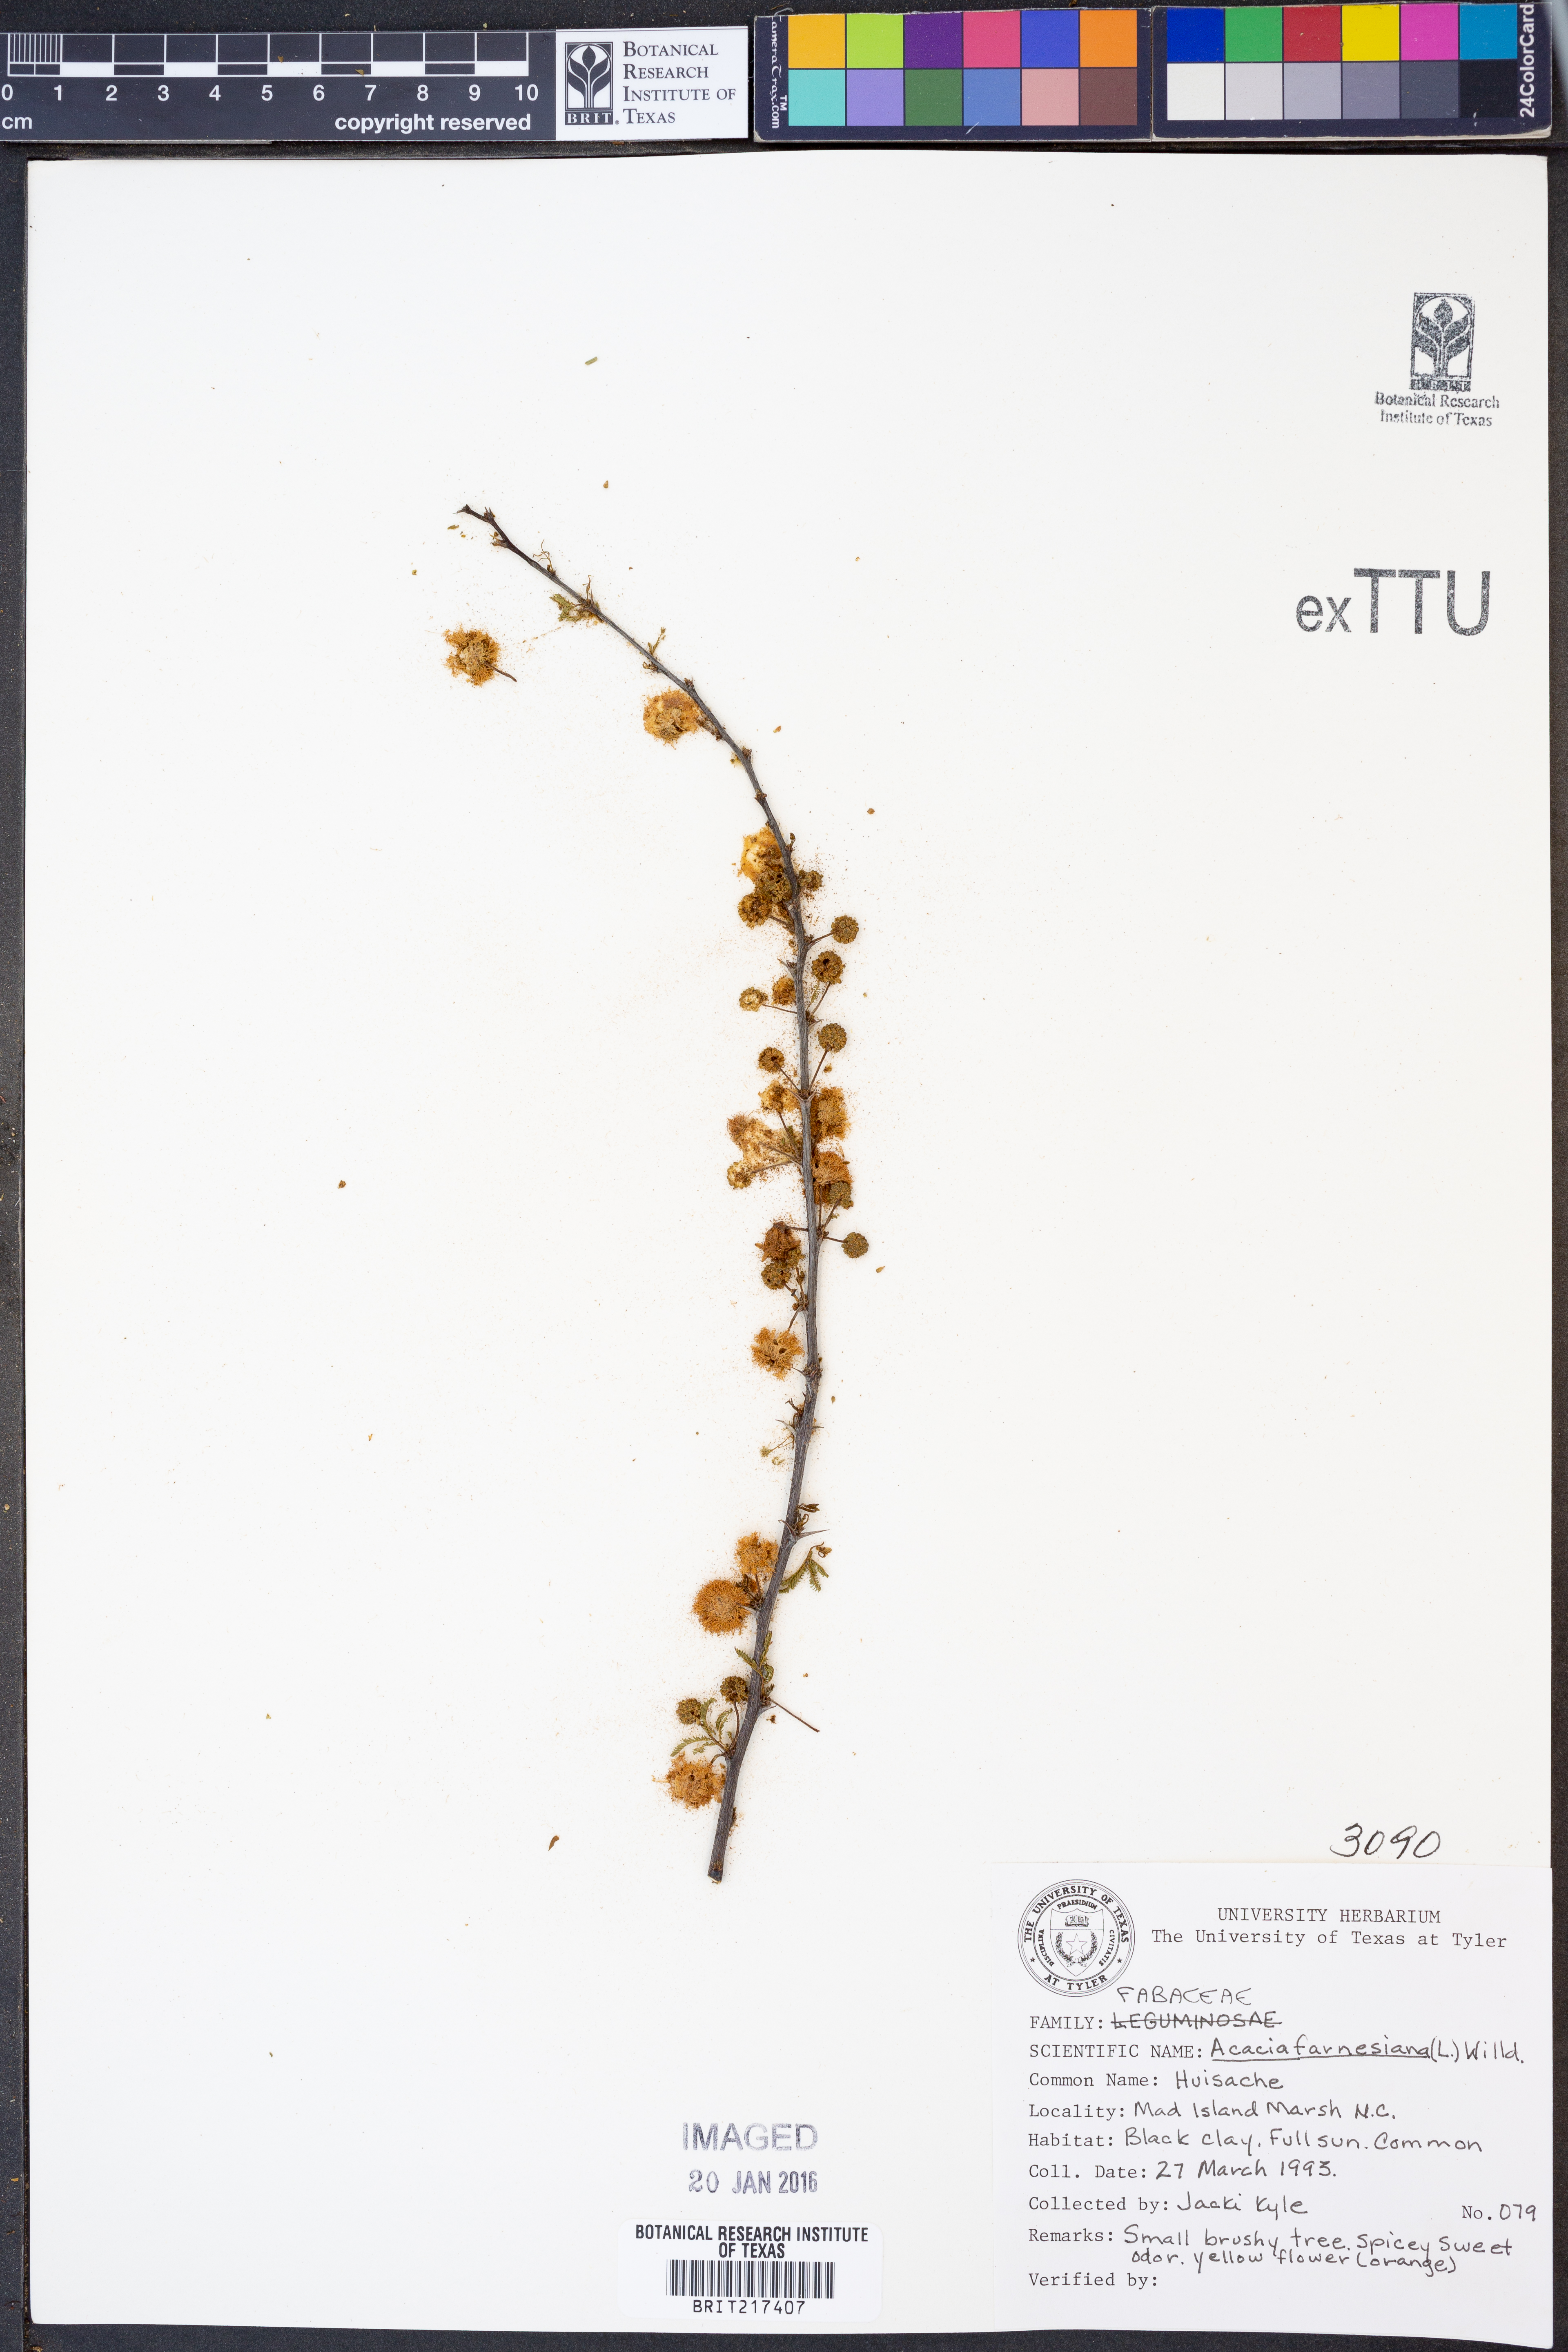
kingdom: Plantae
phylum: Tracheophyta
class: Magnoliopsida
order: Fabales
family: Fabaceae
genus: Vachellia
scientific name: Vachellia farnesiana
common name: Sweet acacia
